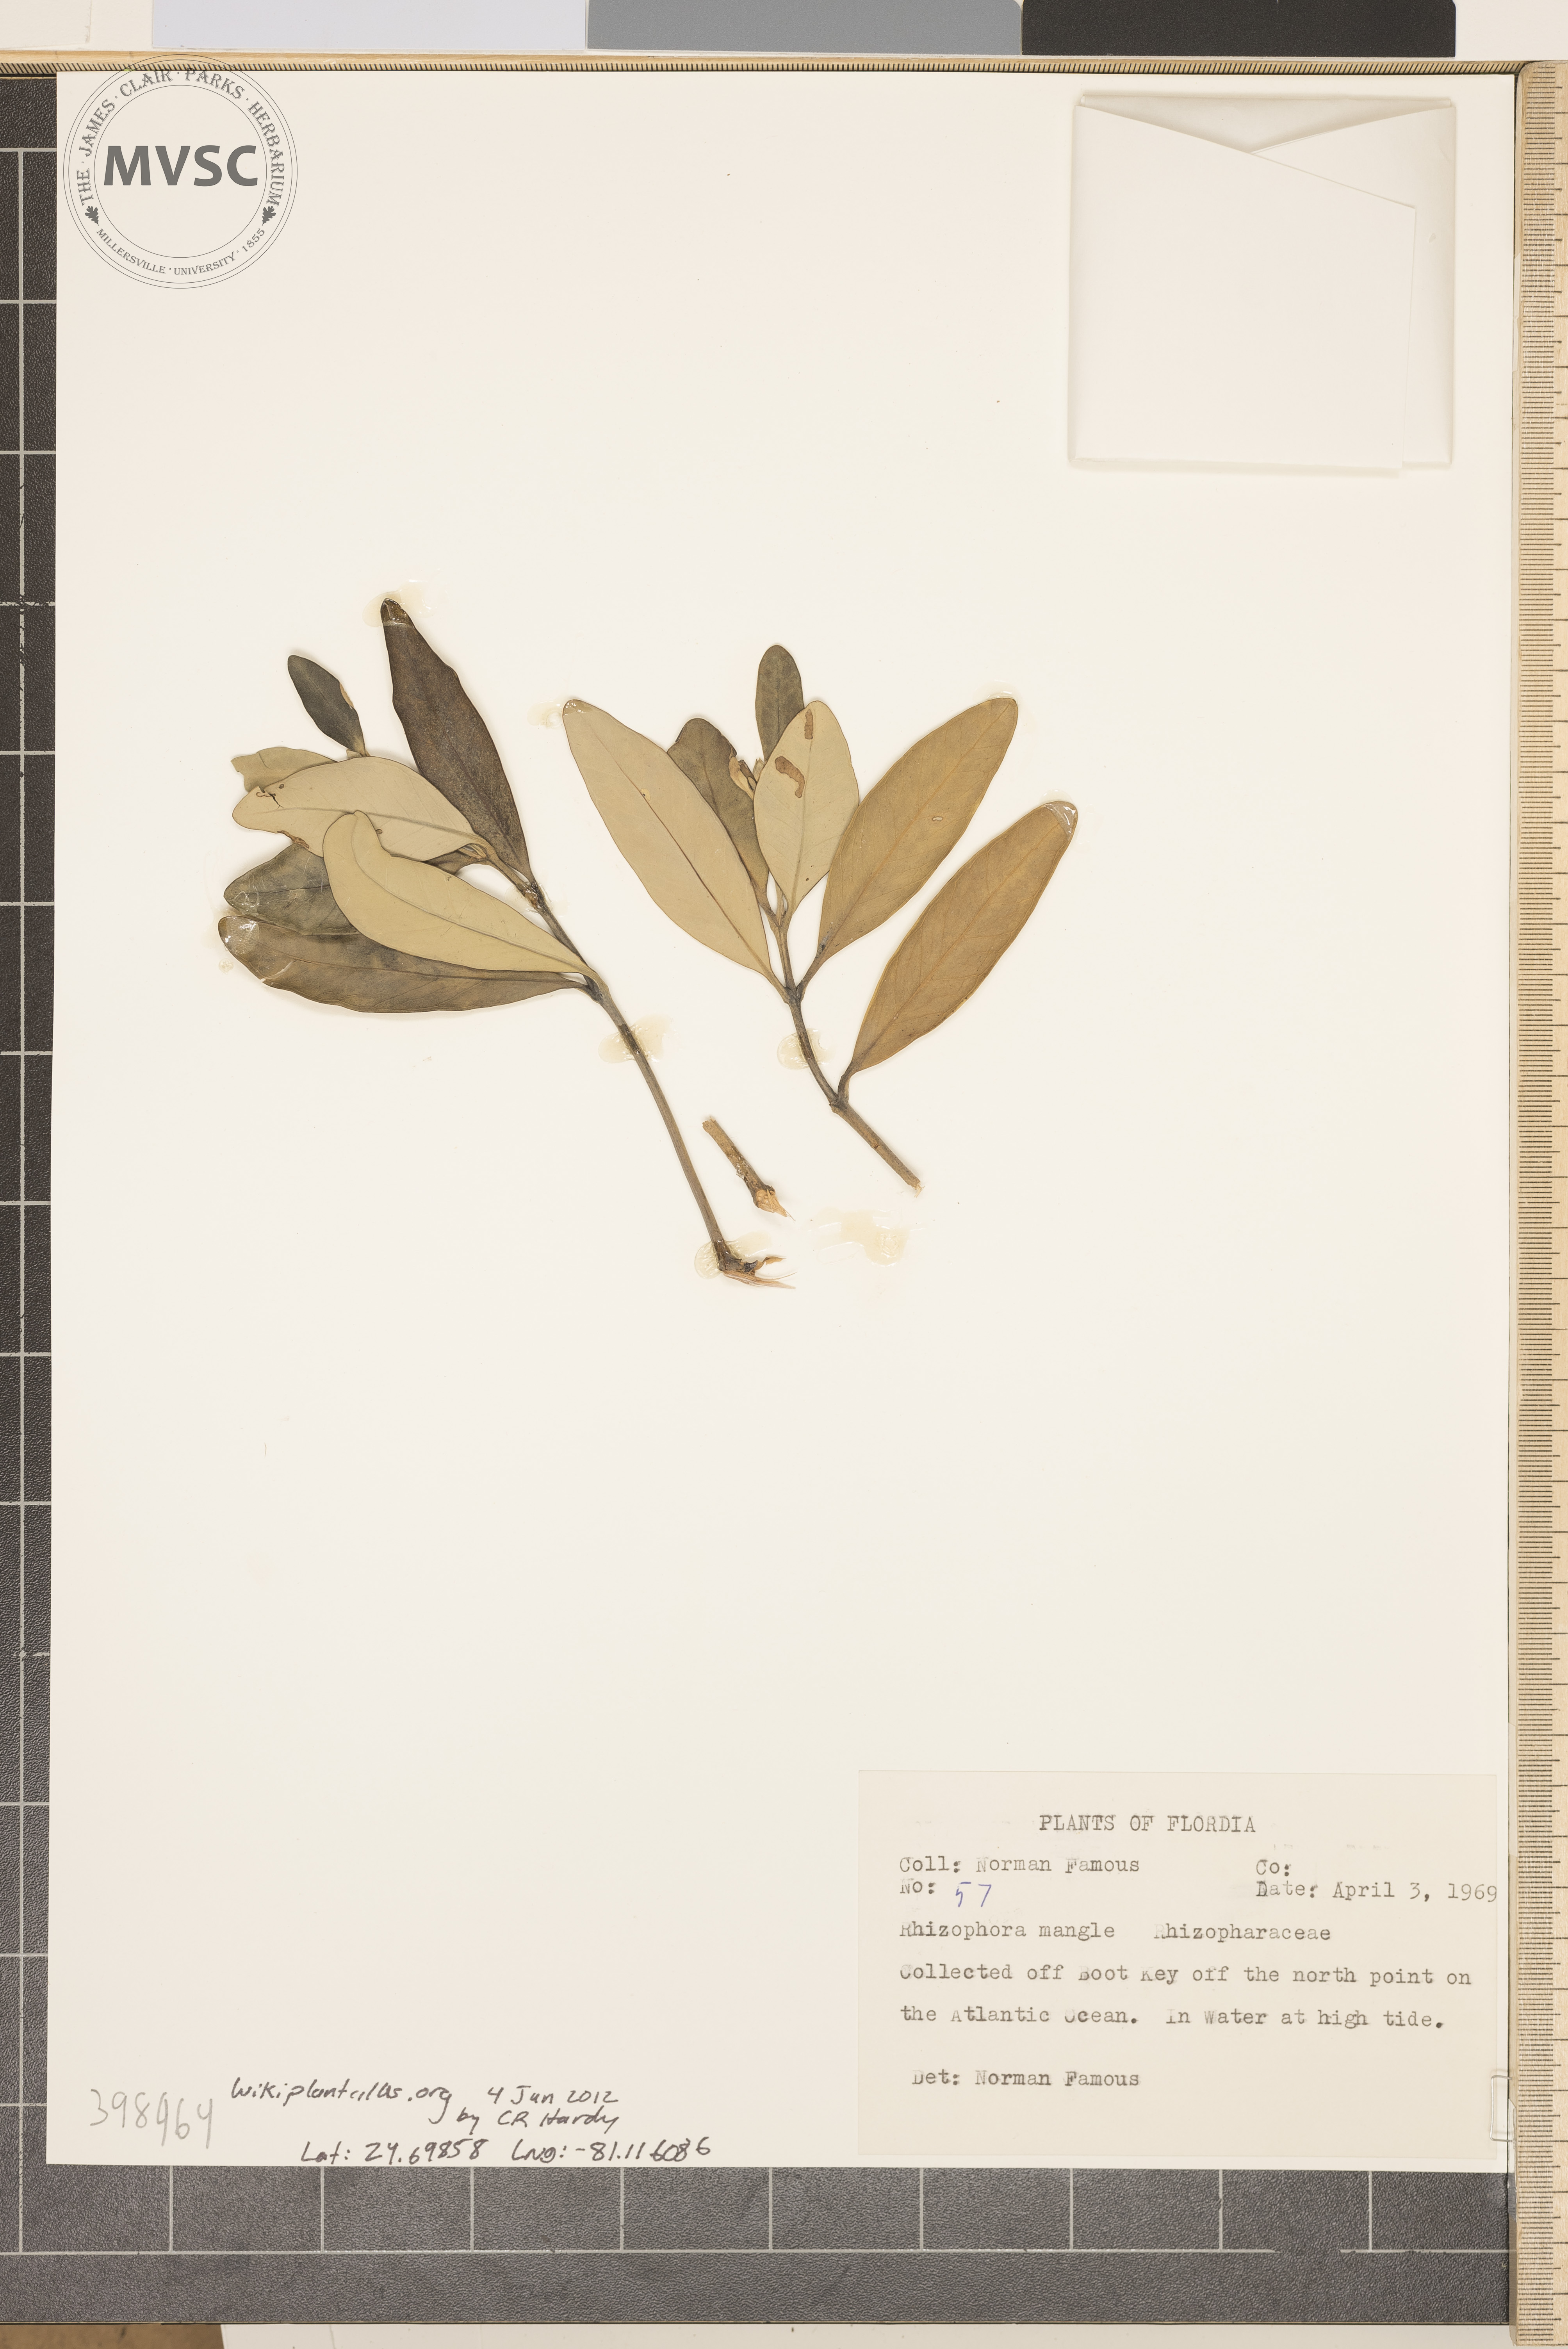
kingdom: Plantae
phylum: Tracheophyta
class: Magnoliopsida
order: Malpighiales
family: Rhizophoraceae
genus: Rhizophora
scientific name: Rhizophora mangle
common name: red mangrove
